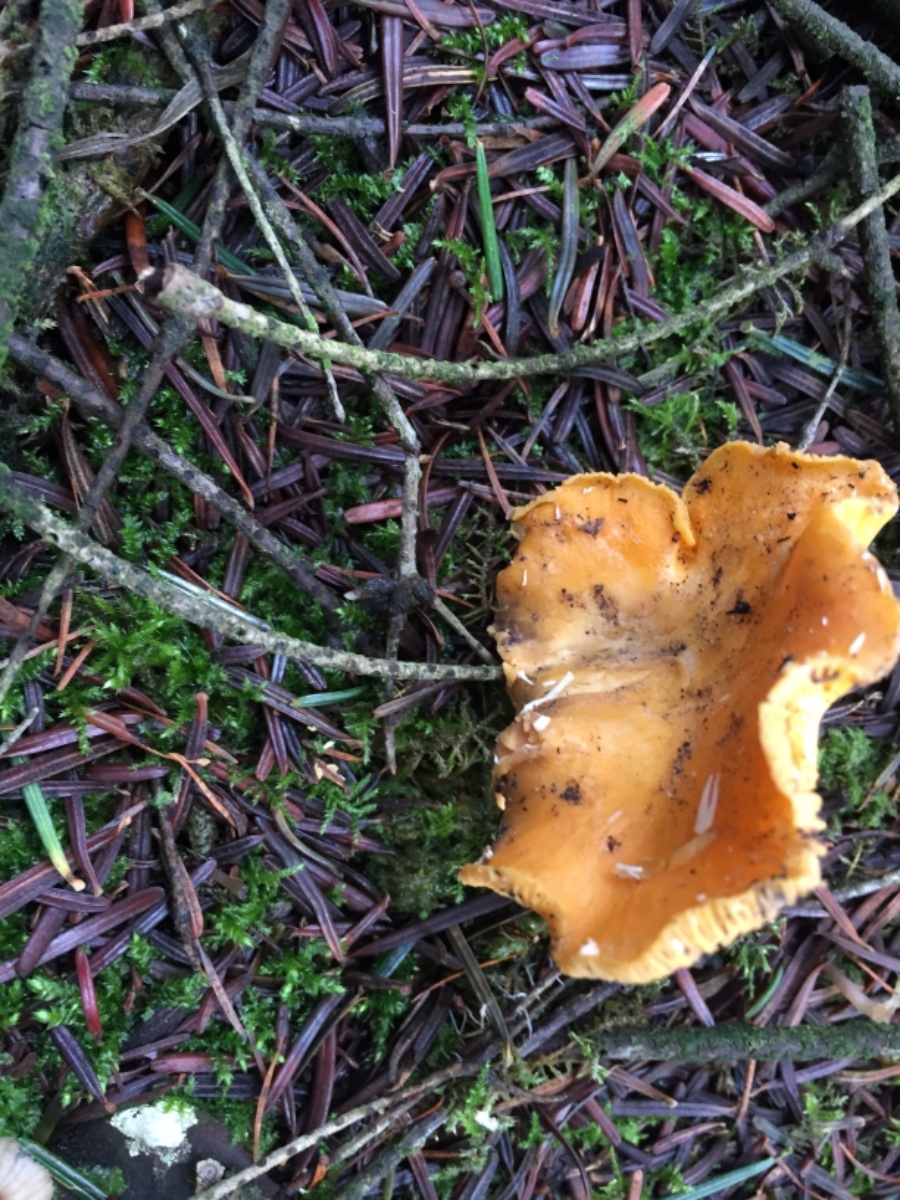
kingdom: Fungi
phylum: Basidiomycota
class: Agaricomycetes
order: Cantharellales
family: Hydnaceae
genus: Cantharellus
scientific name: Cantharellus cibarius
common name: almindelig kantarel
